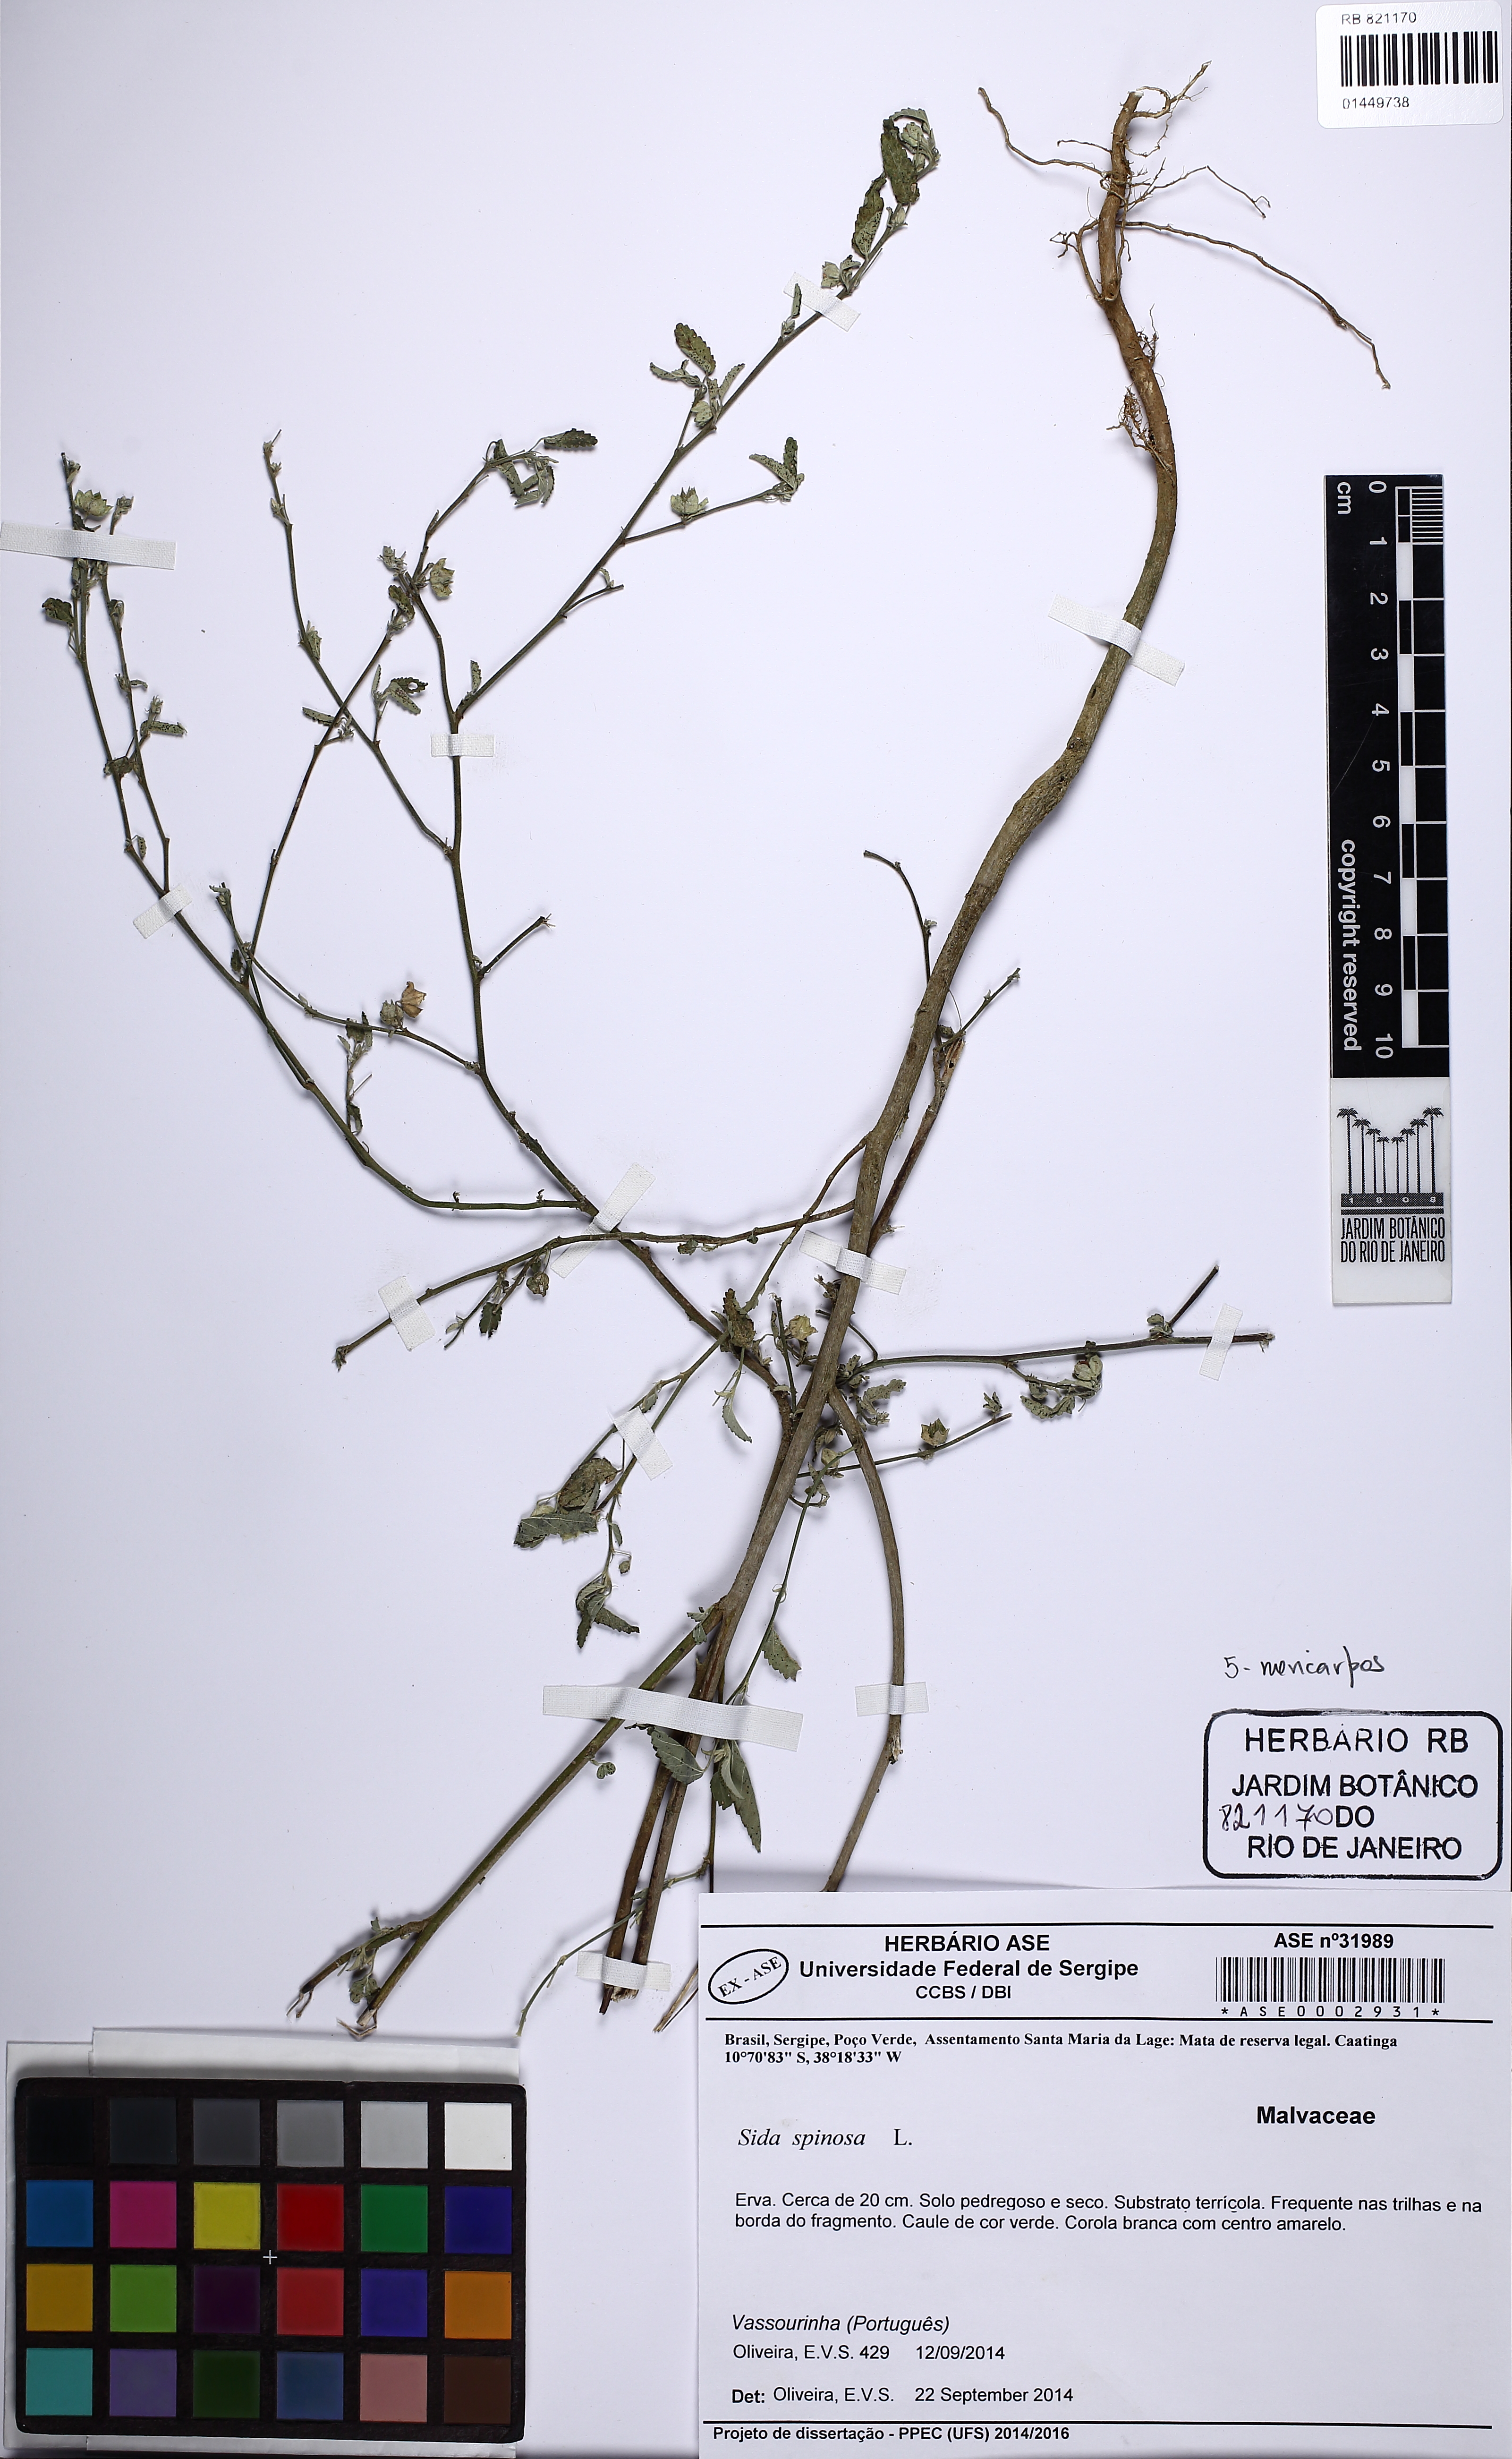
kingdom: Plantae
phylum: Tracheophyta
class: Magnoliopsida
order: Malvales
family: Malvaceae
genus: Sida
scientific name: Sida spinosa
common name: Prickly fanpetals
